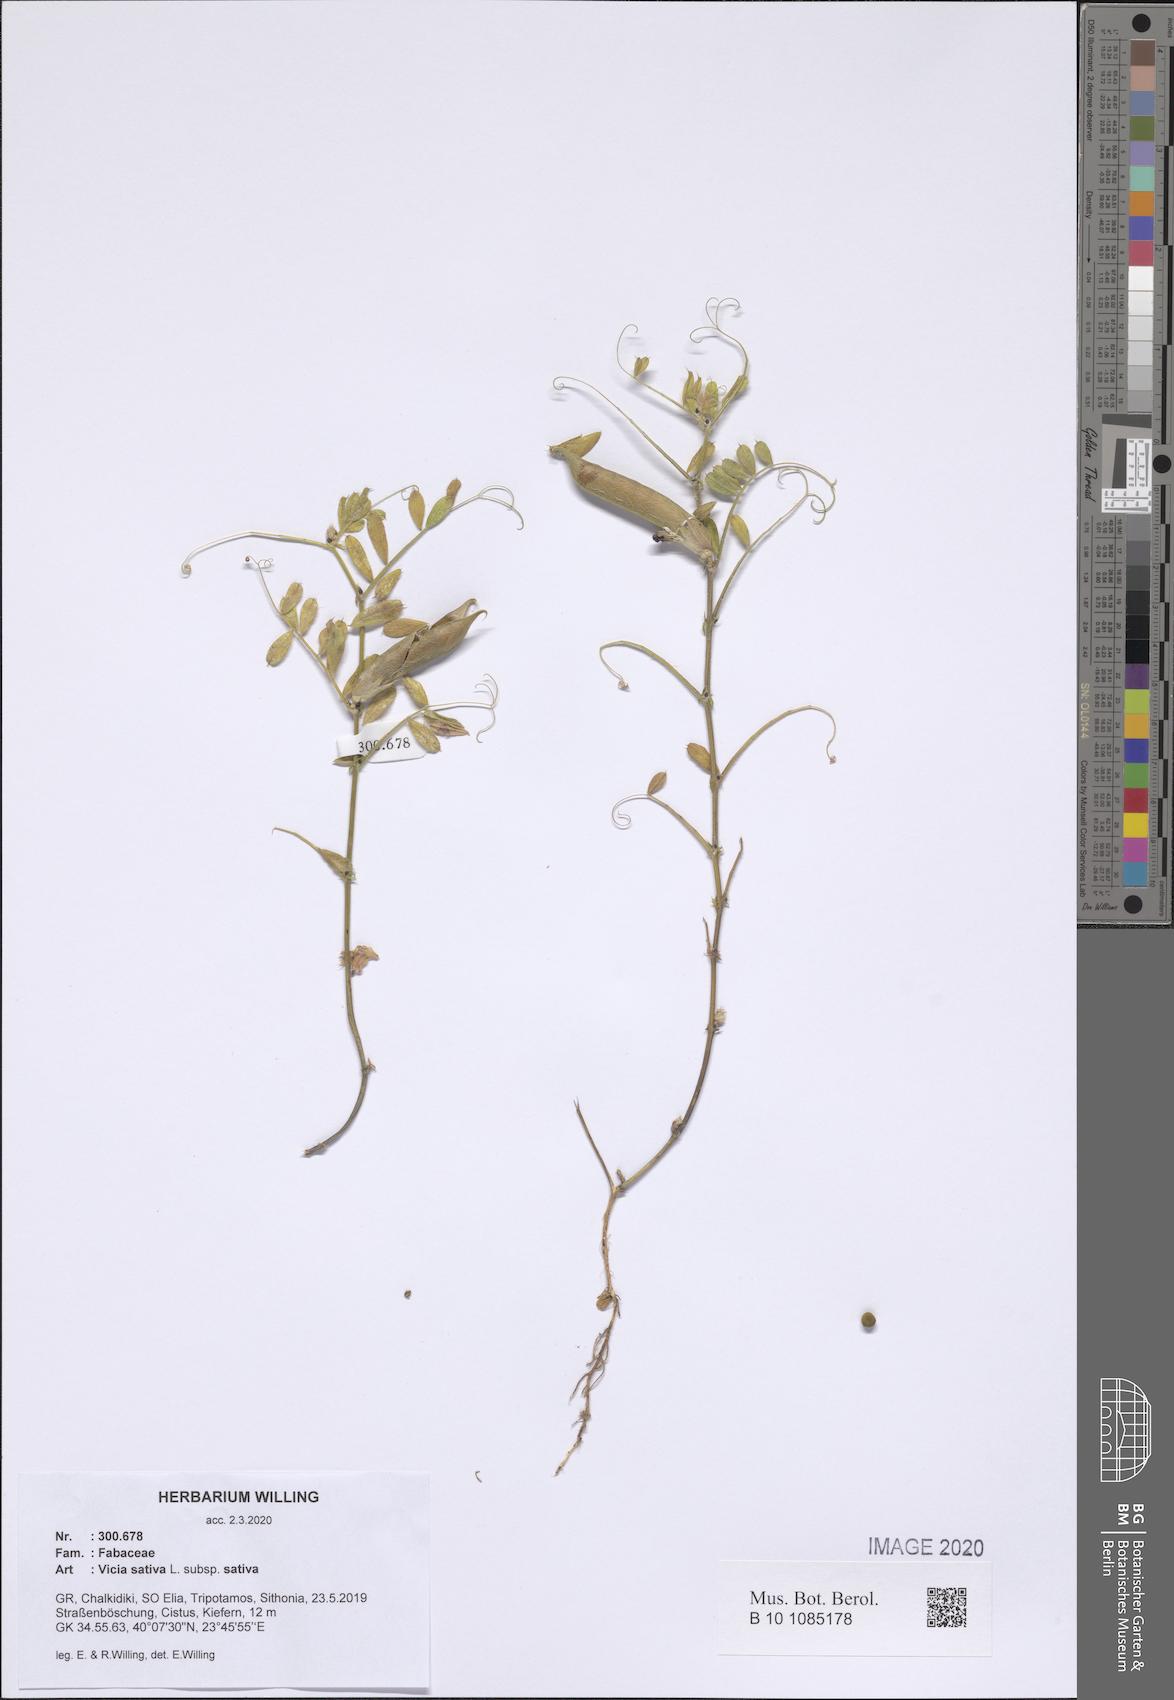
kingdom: Plantae
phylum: Tracheophyta
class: Magnoliopsida
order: Fabales
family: Fabaceae
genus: Vicia
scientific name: Vicia sativa
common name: Garden vetch
